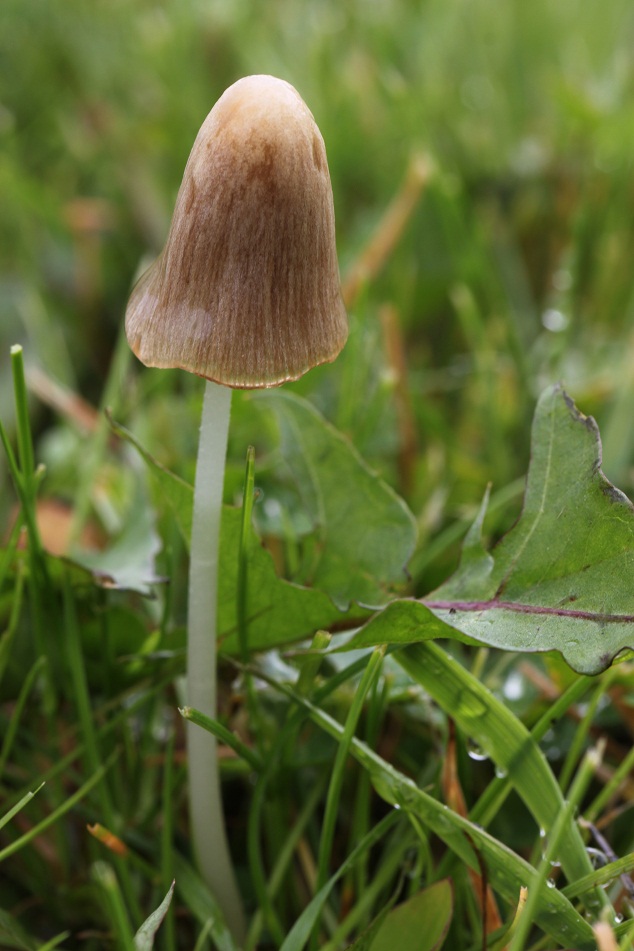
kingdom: Fungi
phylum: Basidiomycota
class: Agaricomycetes
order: Agaricales
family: Bolbitiaceae
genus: Conocybe
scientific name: Conocybe apala
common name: mælkehvid keglehat
